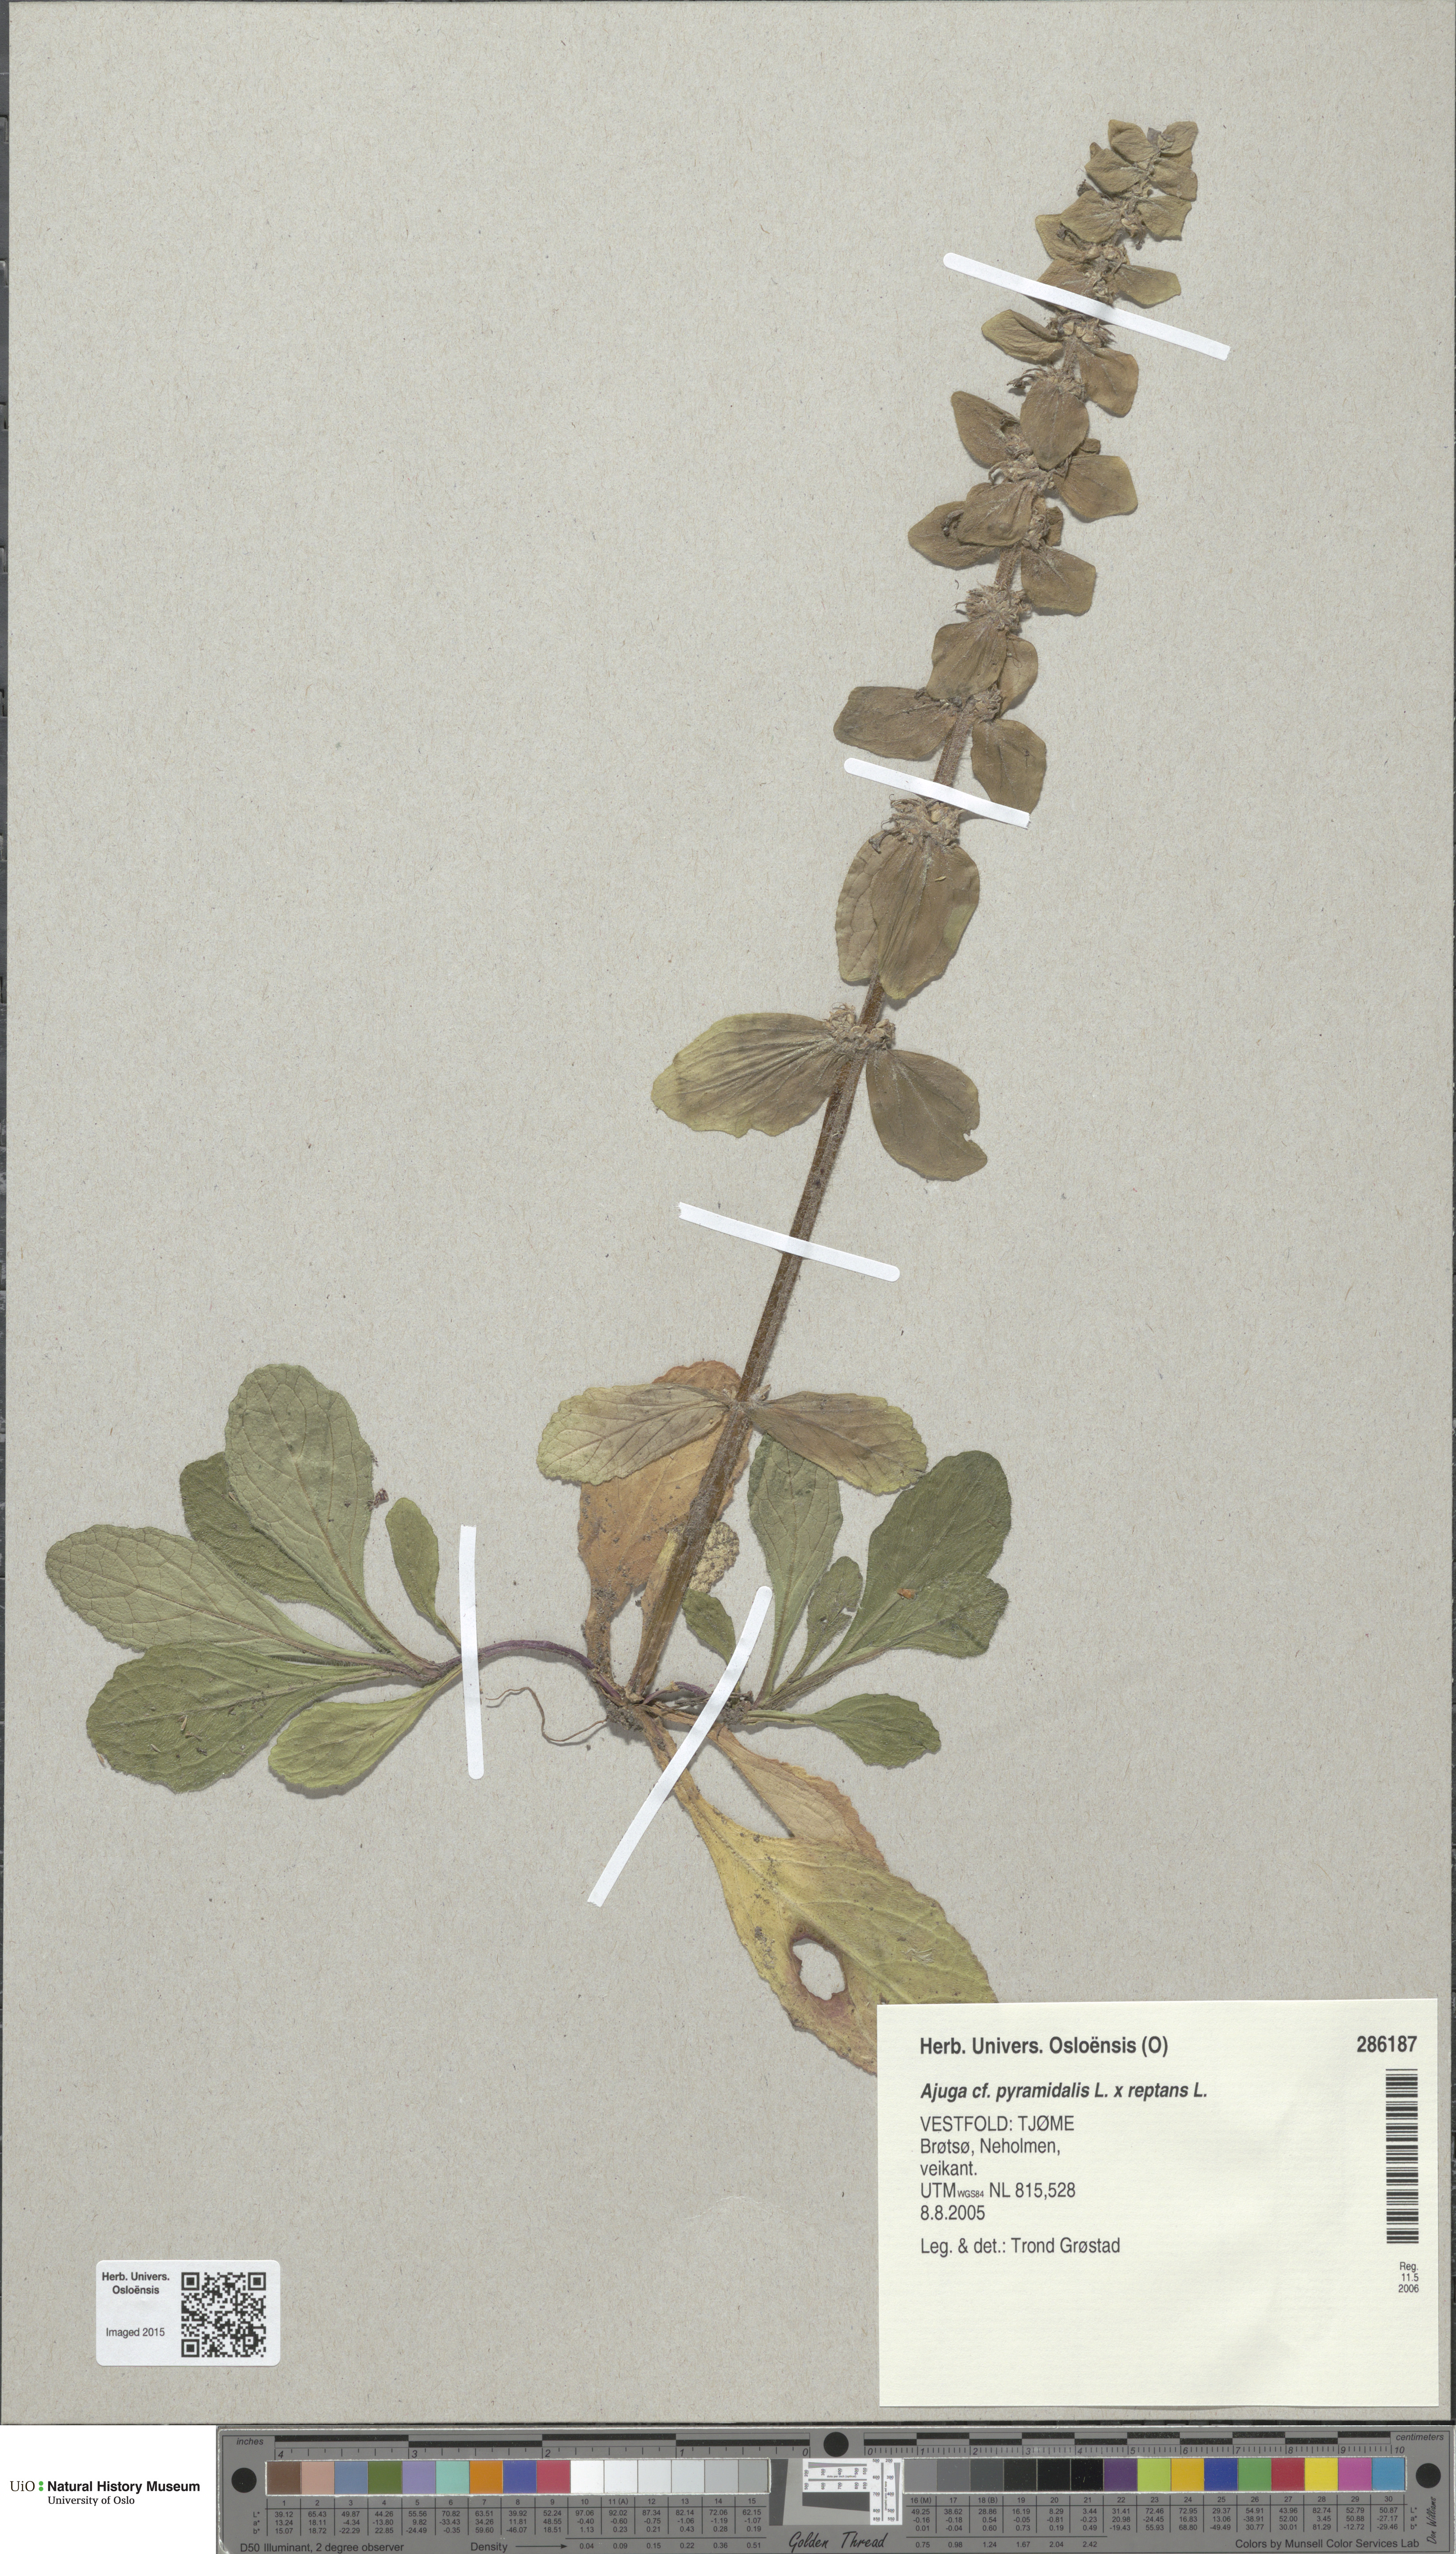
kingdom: Plantae
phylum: Tracheophyta
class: Magnoliopsida
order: Lamiales
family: Lamiaceae
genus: Ajuga
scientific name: Ajuga
